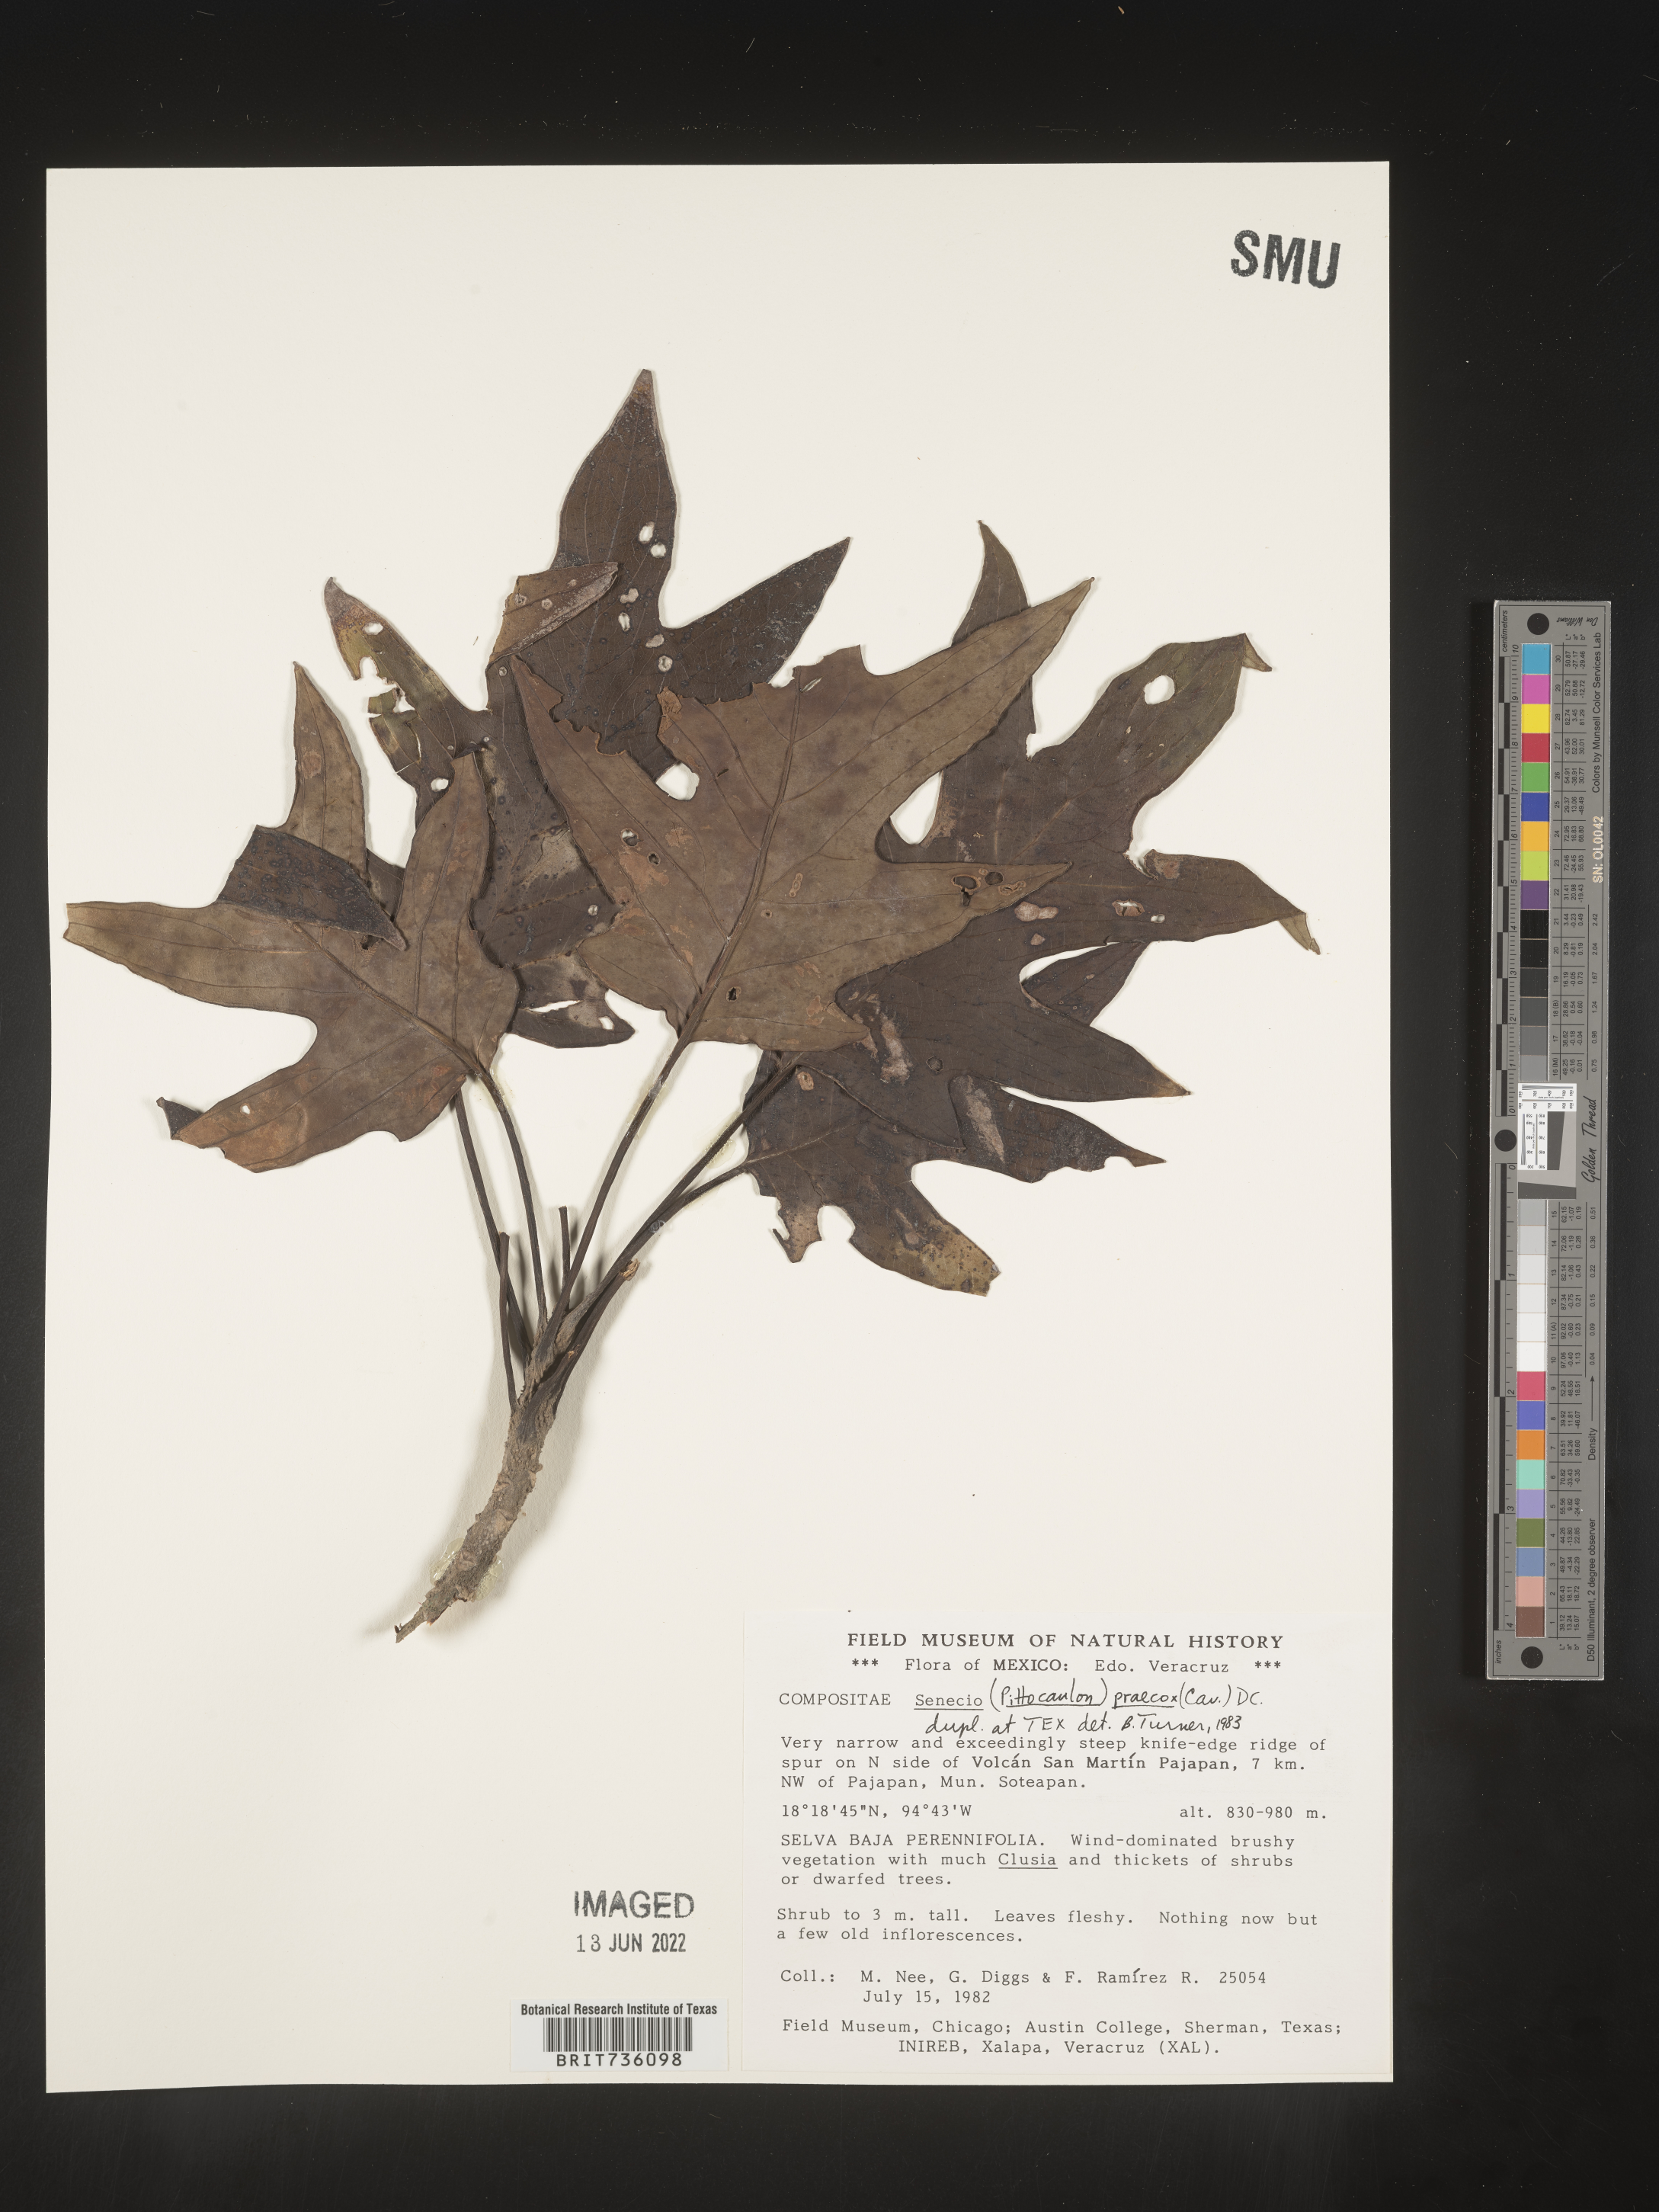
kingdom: Plantae
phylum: Tracheophyta
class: Magnoliopsida
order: Asterales
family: Asteraceae
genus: Pittocaulon
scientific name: Pittocaulon
